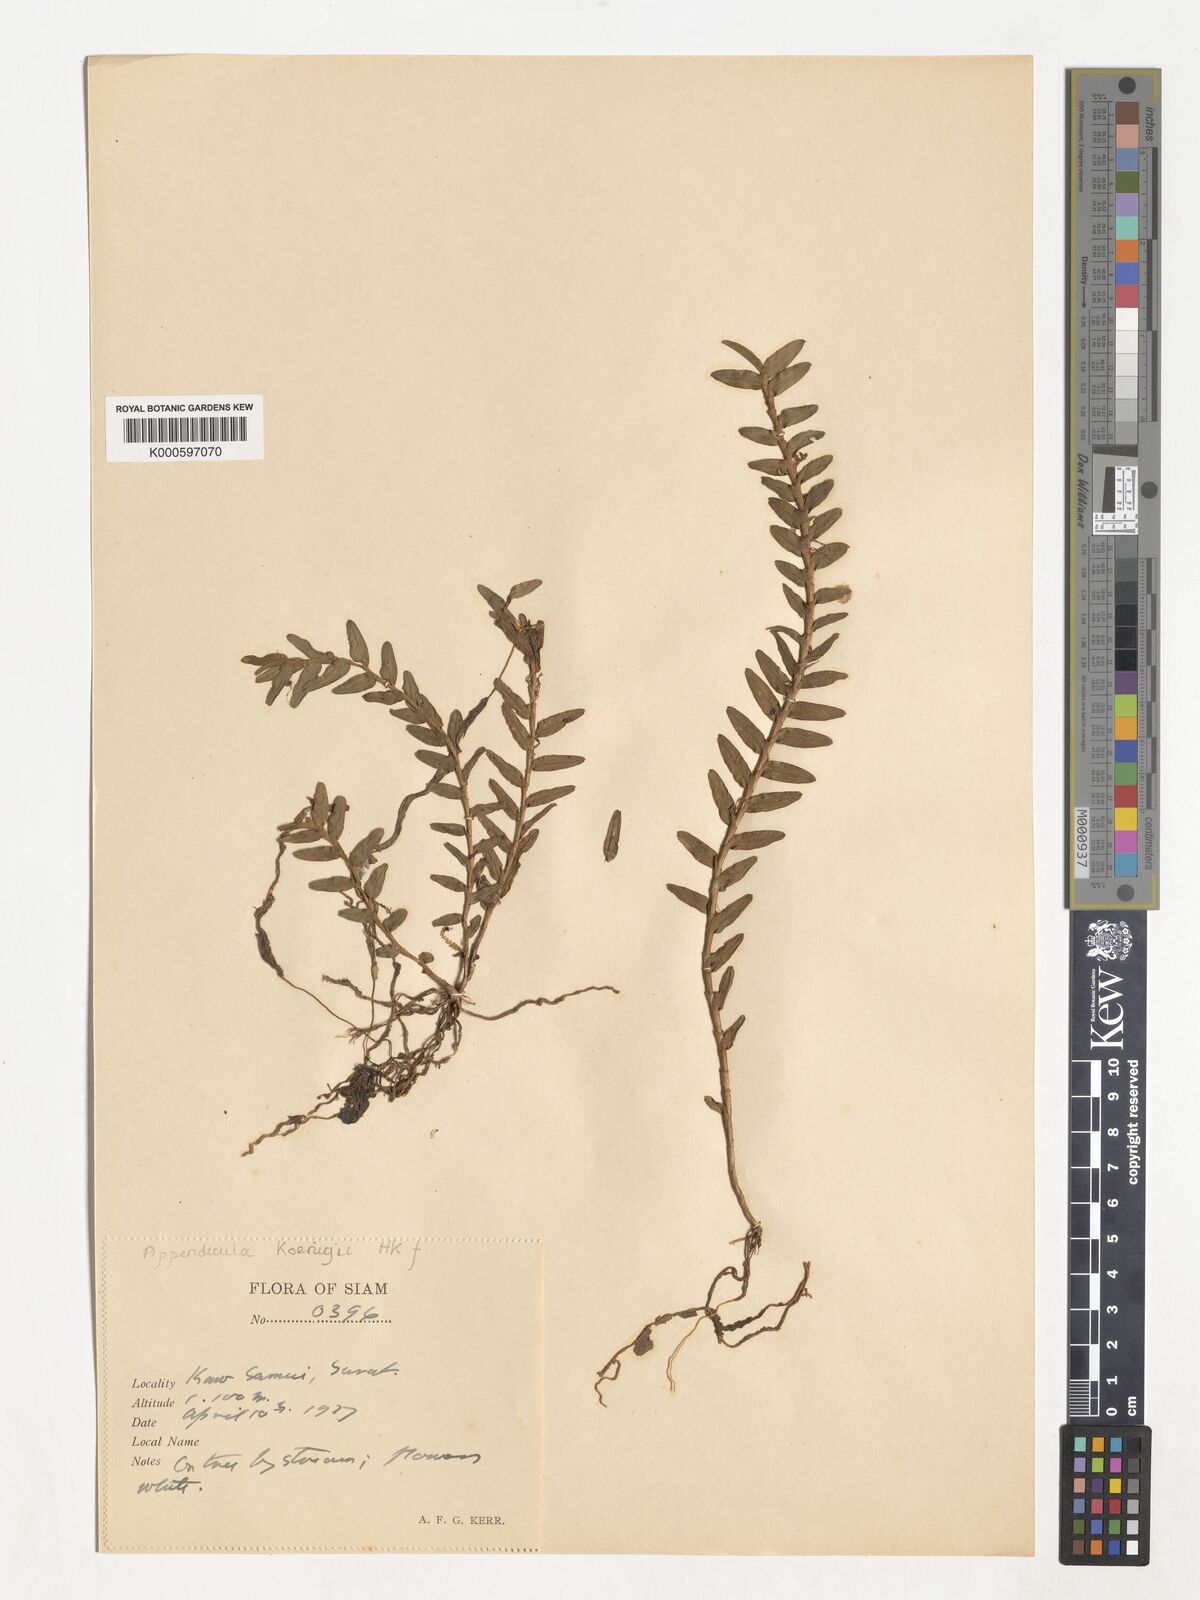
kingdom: Plantae
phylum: Tracheophyta
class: Liliopsida
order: Asparagales
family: Orchidaceae
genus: Appendicula
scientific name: Appendicula
